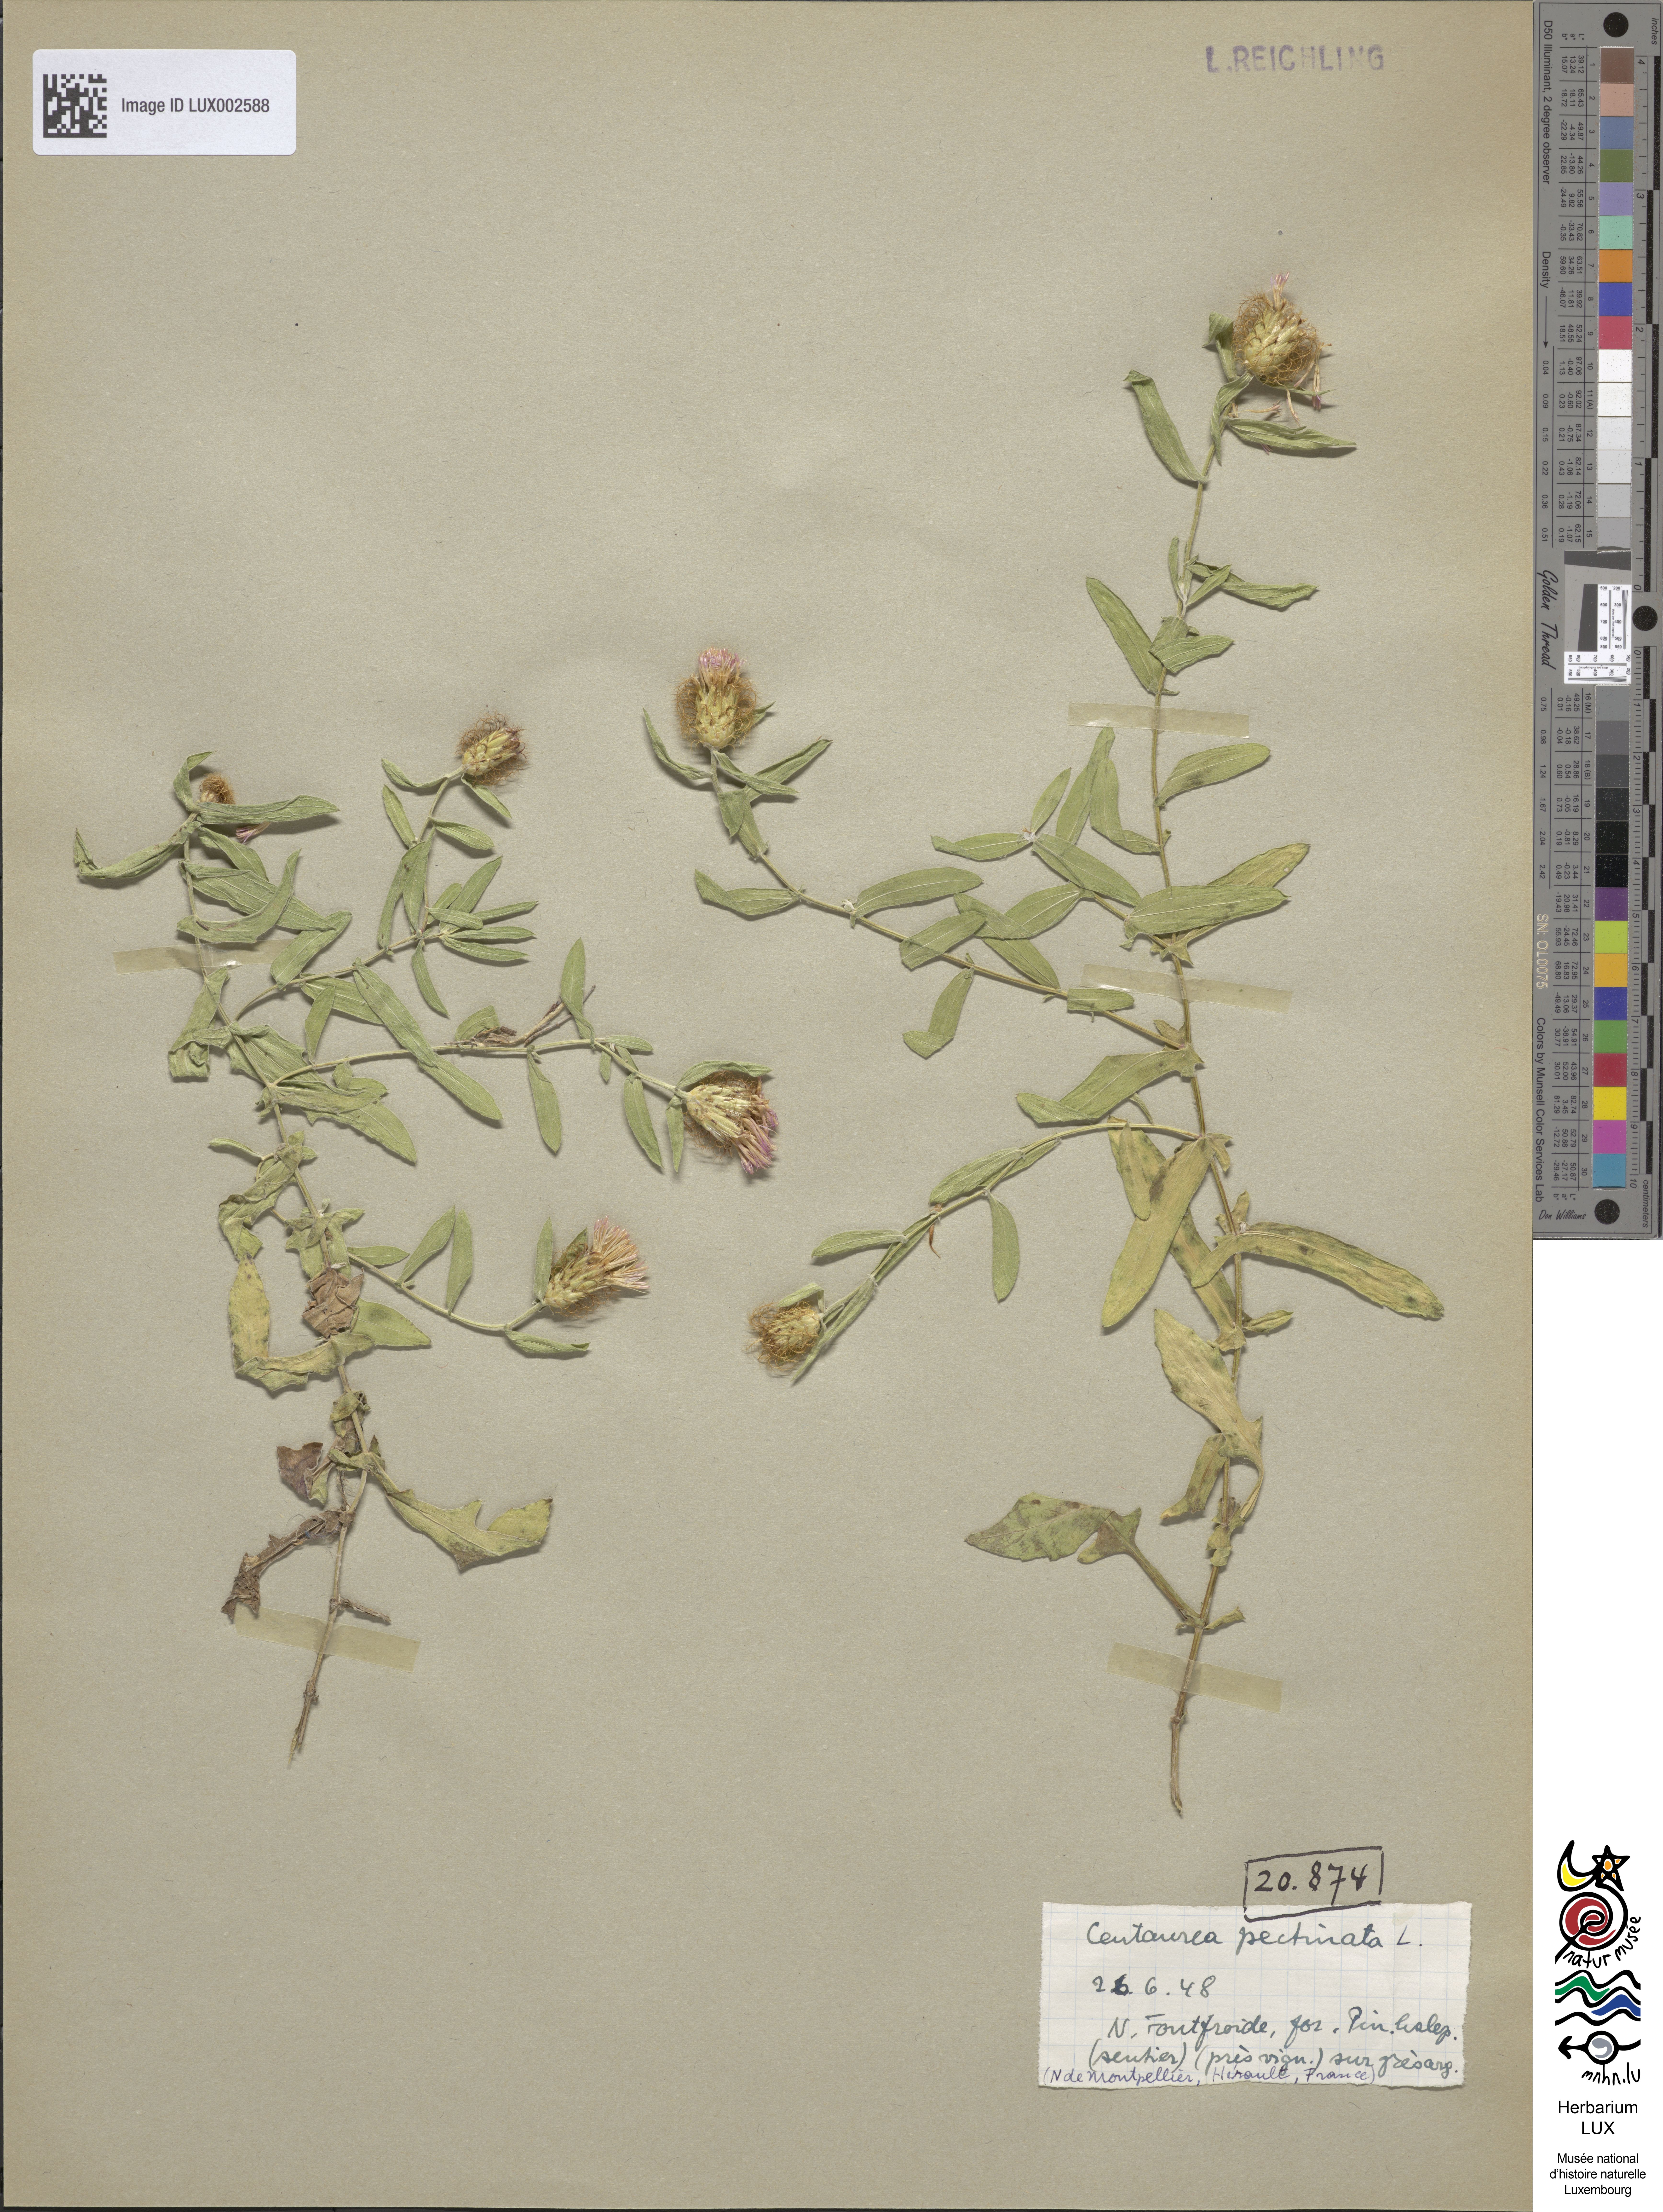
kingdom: Plantae
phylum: Tracheophyta
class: Magnoliopsida
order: Asterales
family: Asteraceae
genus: Centaurea
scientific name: Centaurea pectinata
